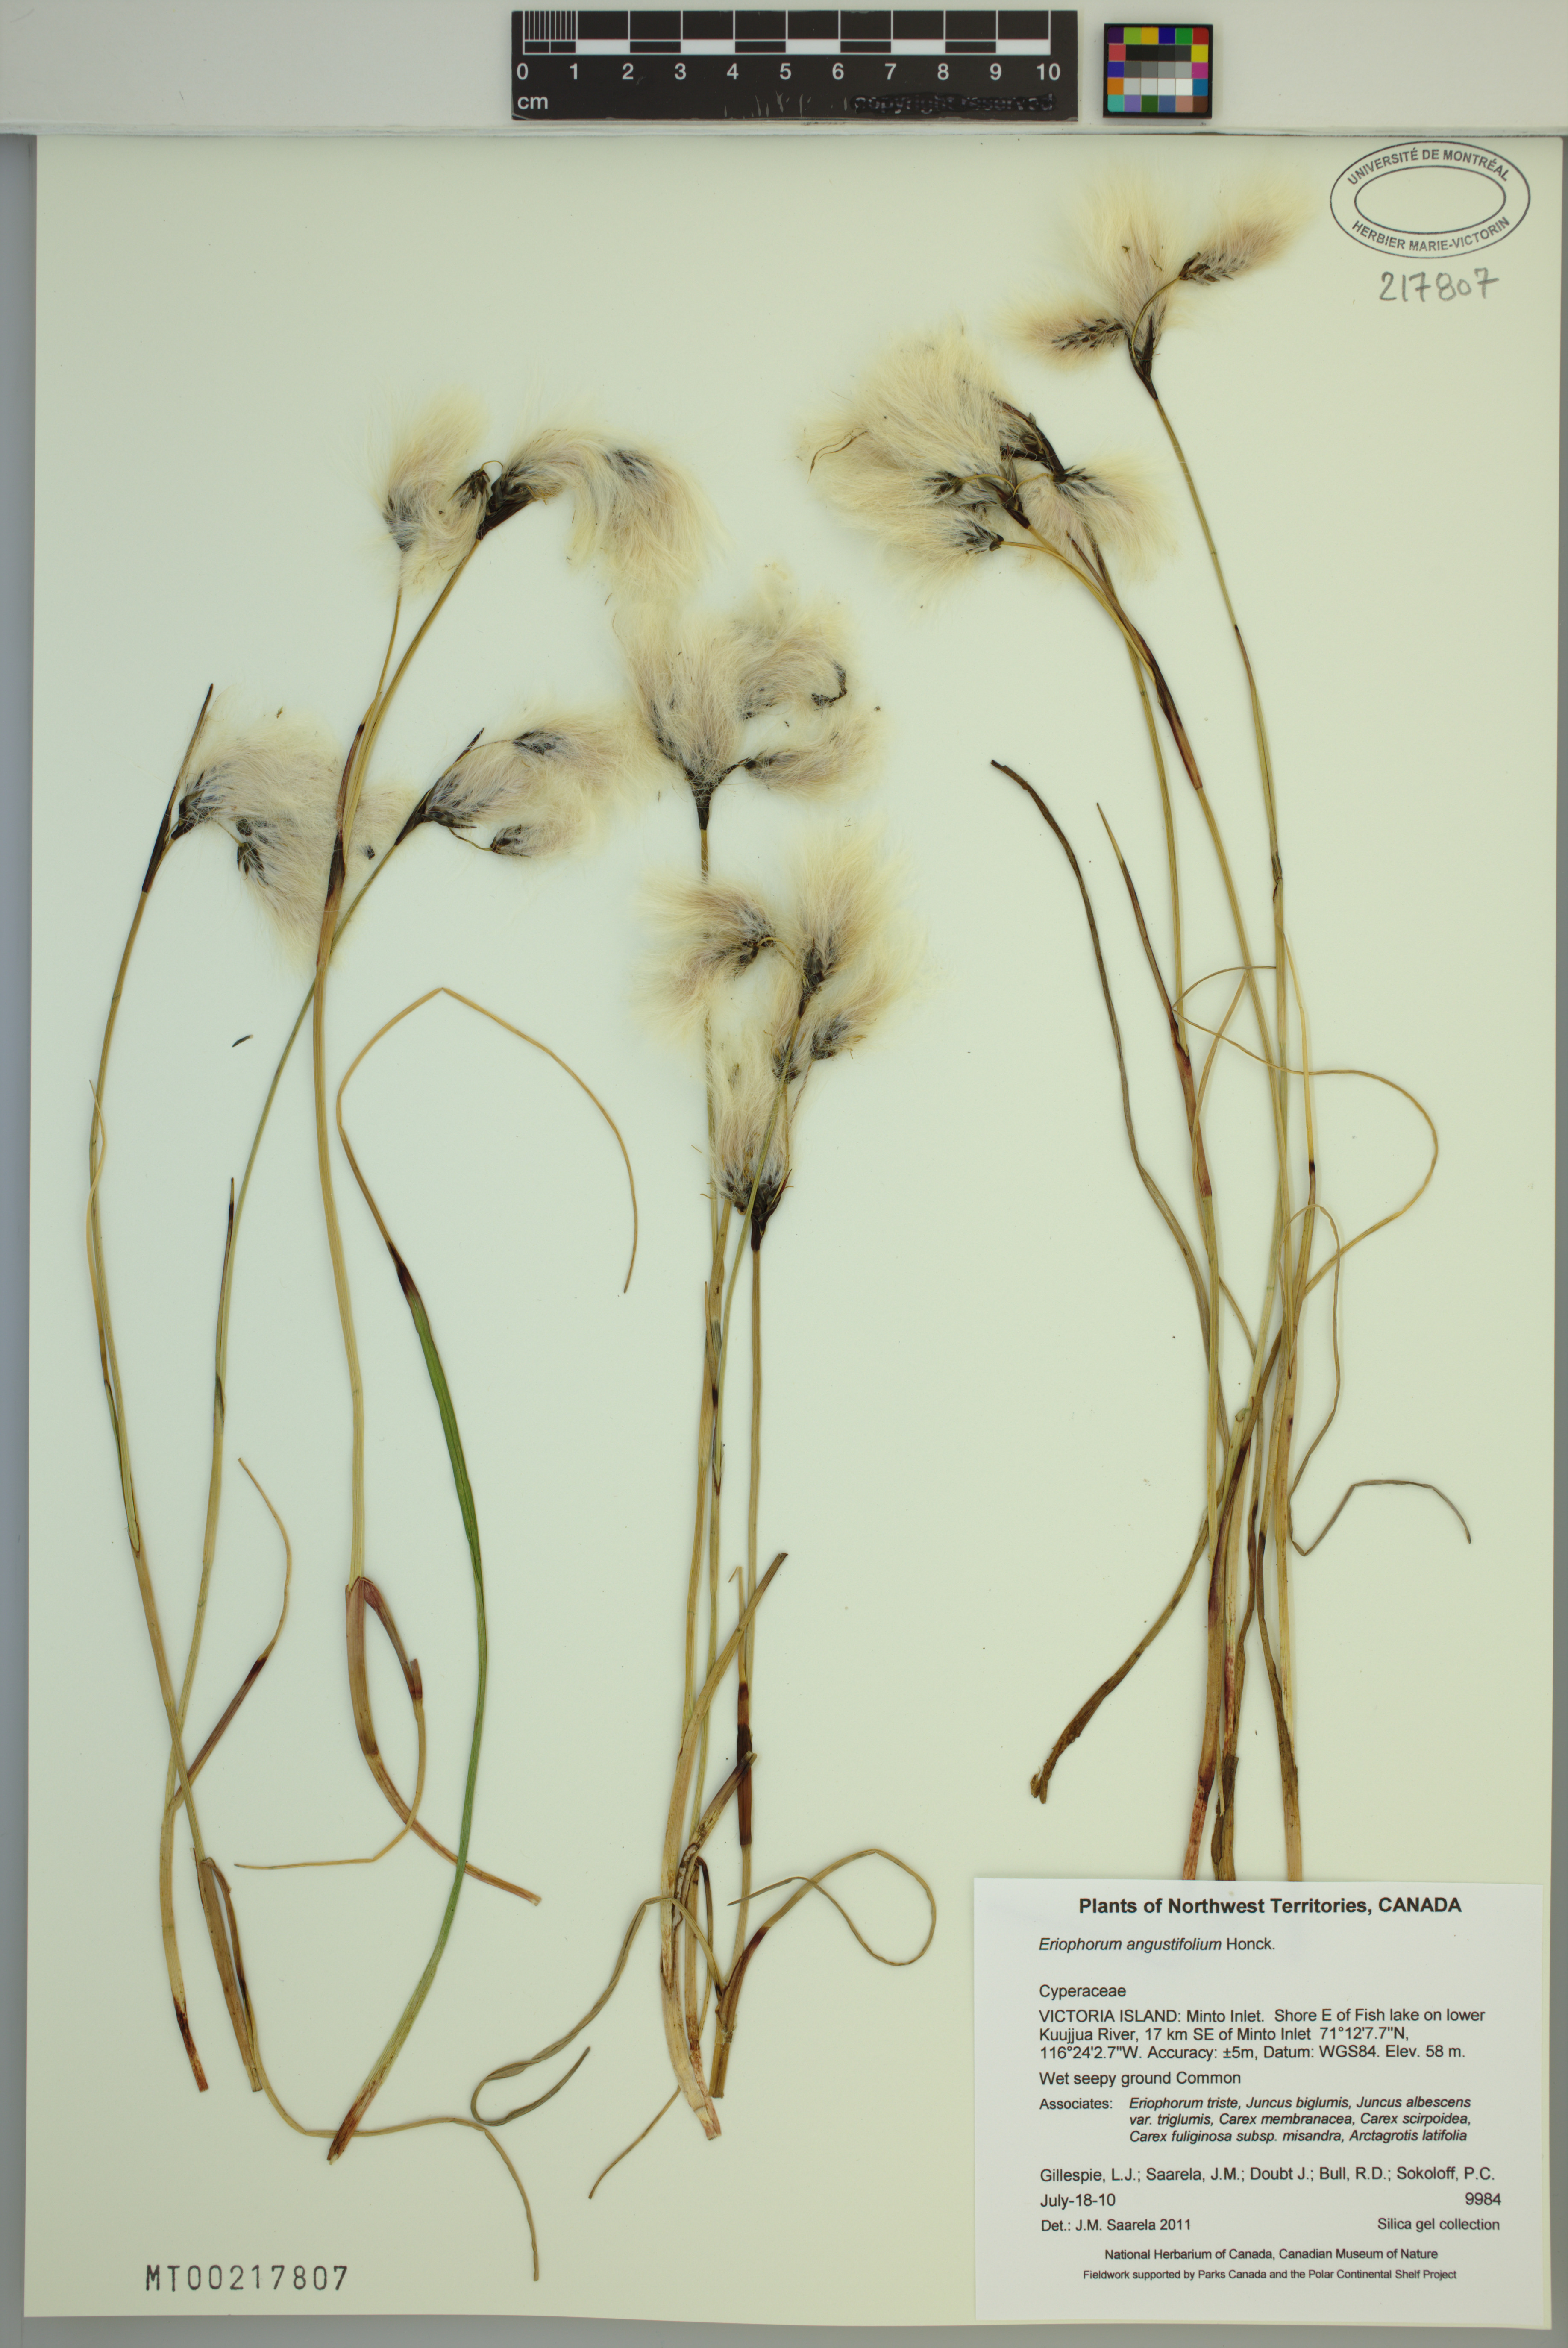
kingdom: Plantae
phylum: Tracheophyta
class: Liliopsida
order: Poales
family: Cyperaceae
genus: Eriophorum
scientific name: Eriophorum angustifolium
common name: Common cottongrass
